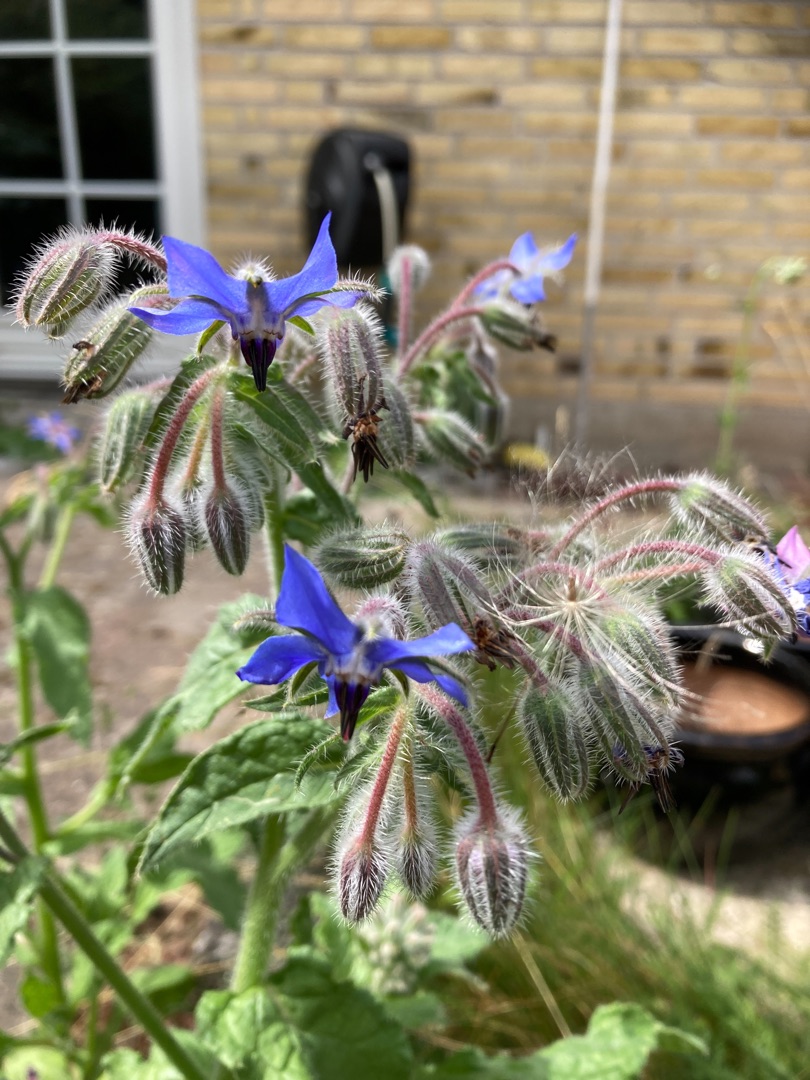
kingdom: Plantae
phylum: Tracheophyta
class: Magnoliopsida
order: Boraginales
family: Boraginaceae
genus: Borago
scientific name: Borago officinalis
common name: Hjulkrone
